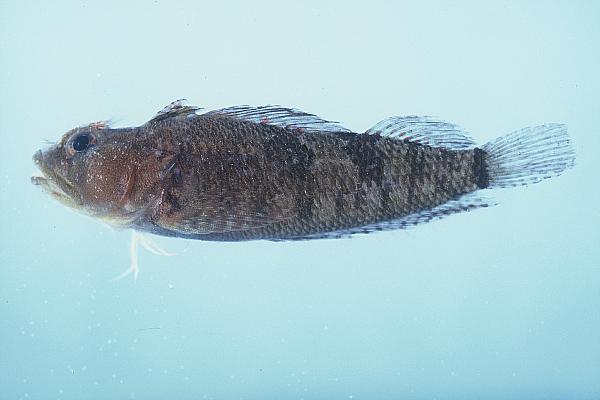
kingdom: Animalia
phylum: Chordata
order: Perciformes
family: Tripterygiidae
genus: Cremnochorites
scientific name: Cremnochorites capensis
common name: Cape triplefin
